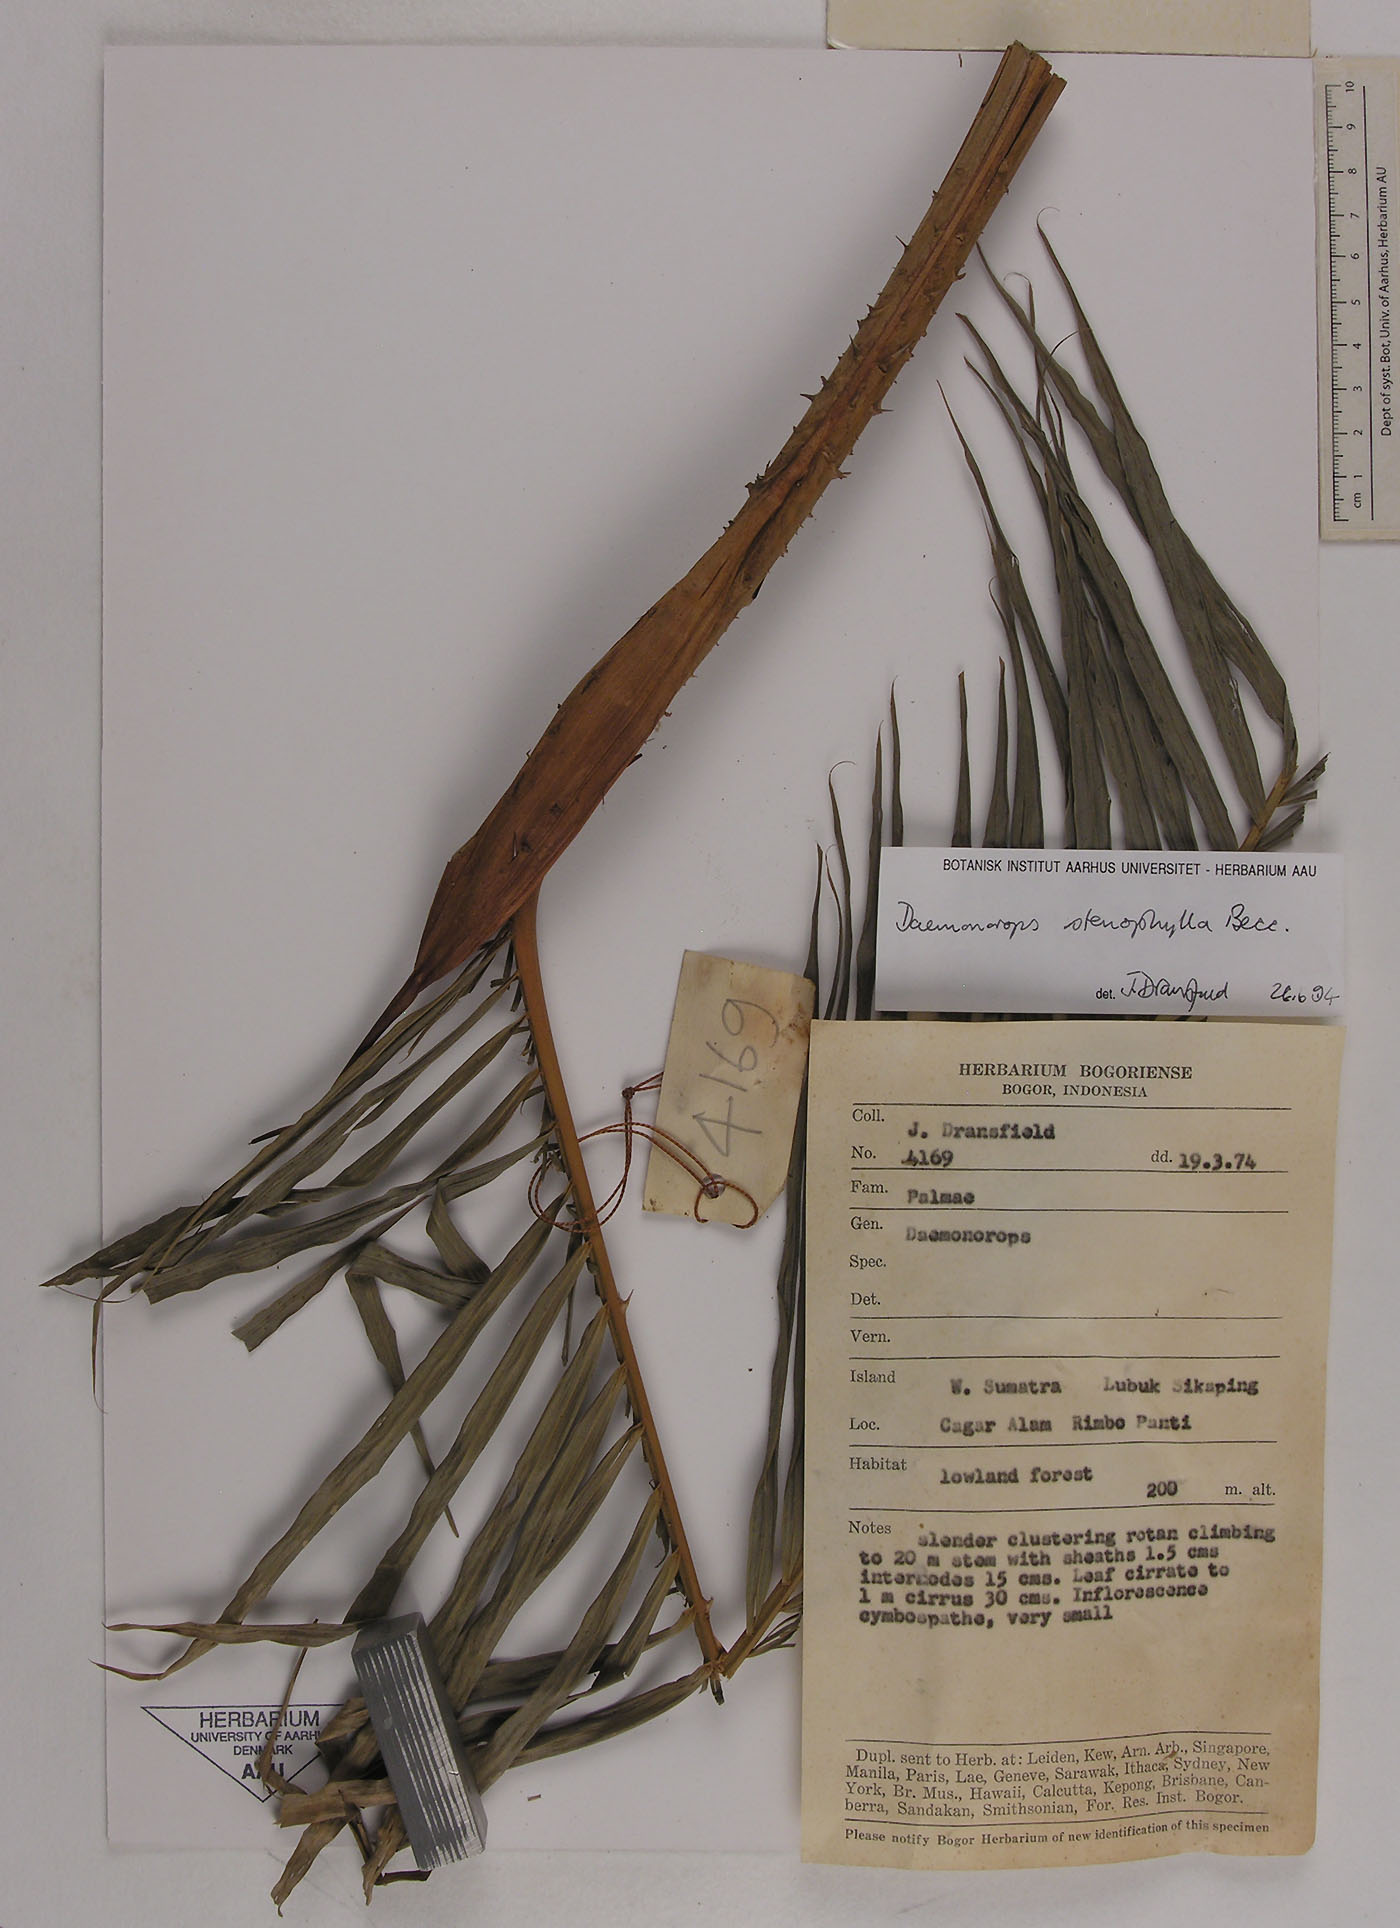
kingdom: Plantae
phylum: Tracheophyta
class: Liliopsida
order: Arecales
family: Arecaceae
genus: Calamus
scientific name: Calamus melanochaetes
